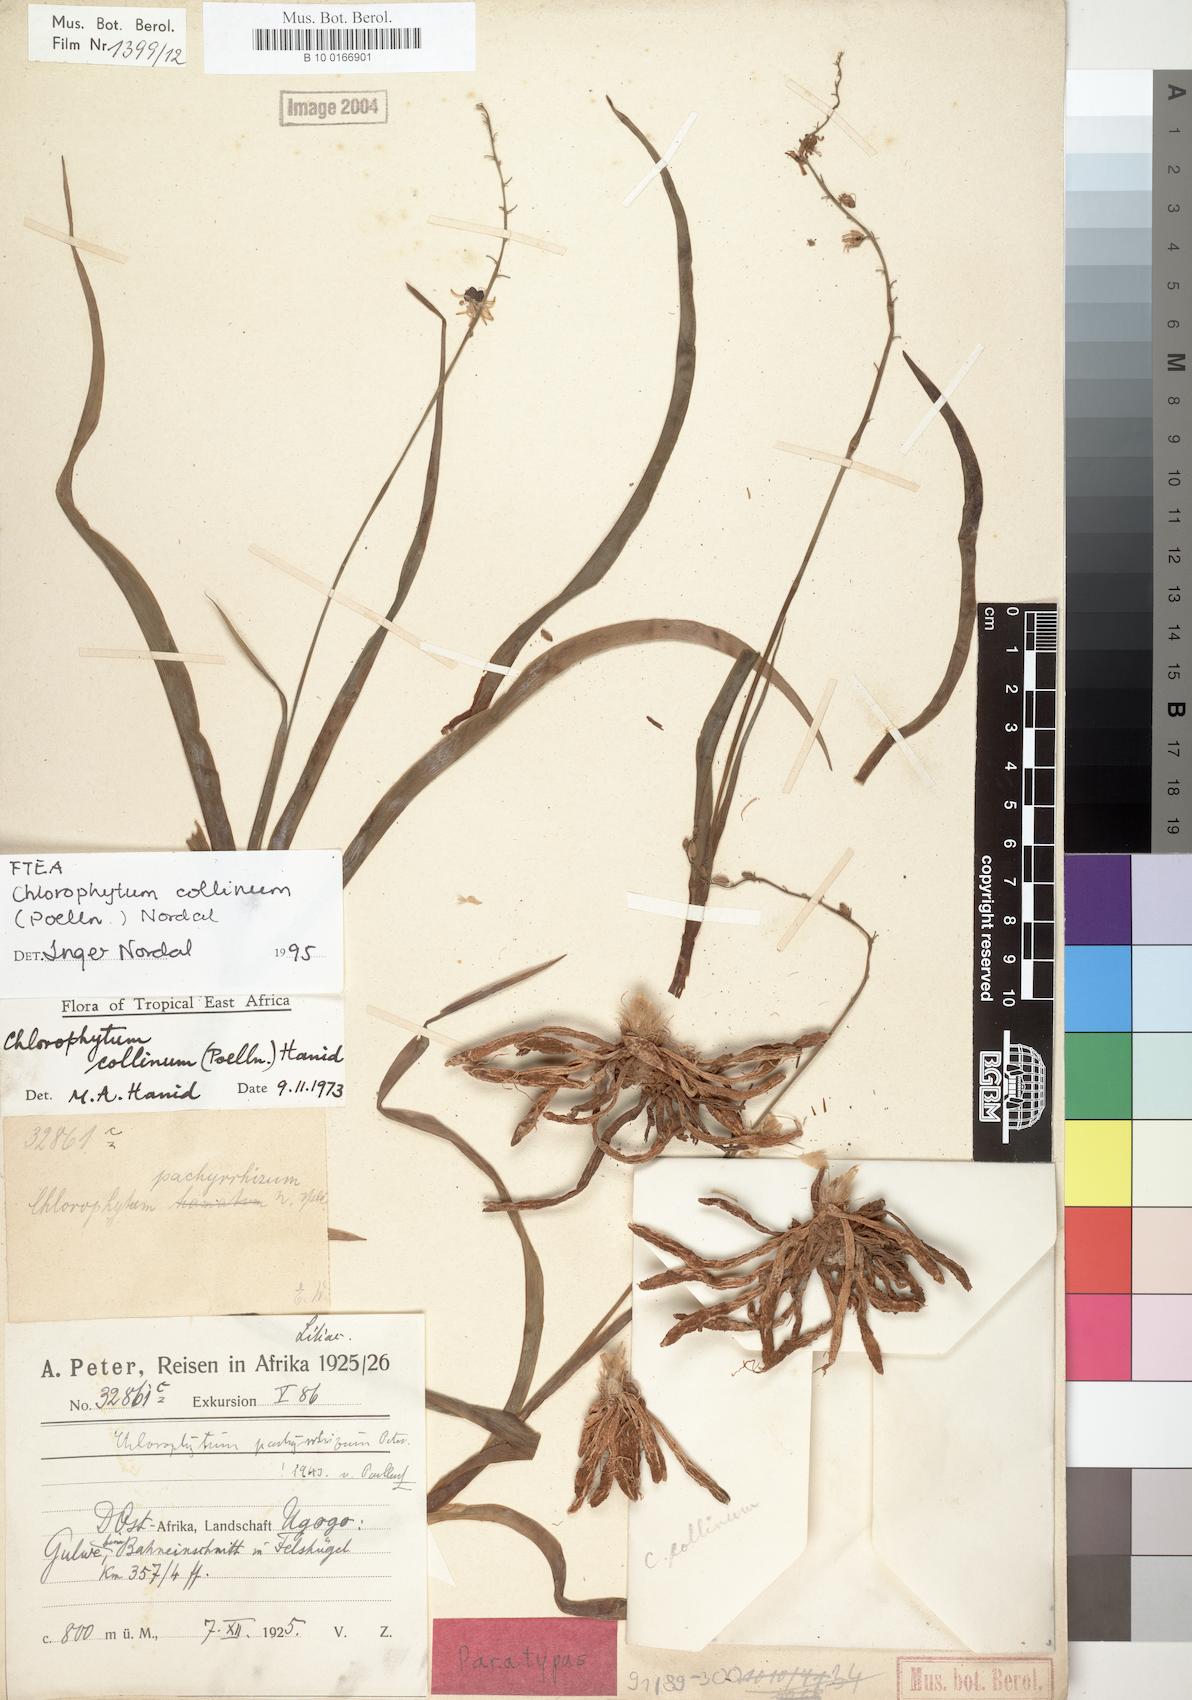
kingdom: Plantae
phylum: Tracheophyta
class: Liliopsida
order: Asparagales
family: Asparagaceae
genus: Chlorophytum
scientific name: Chlorophytum collinum
